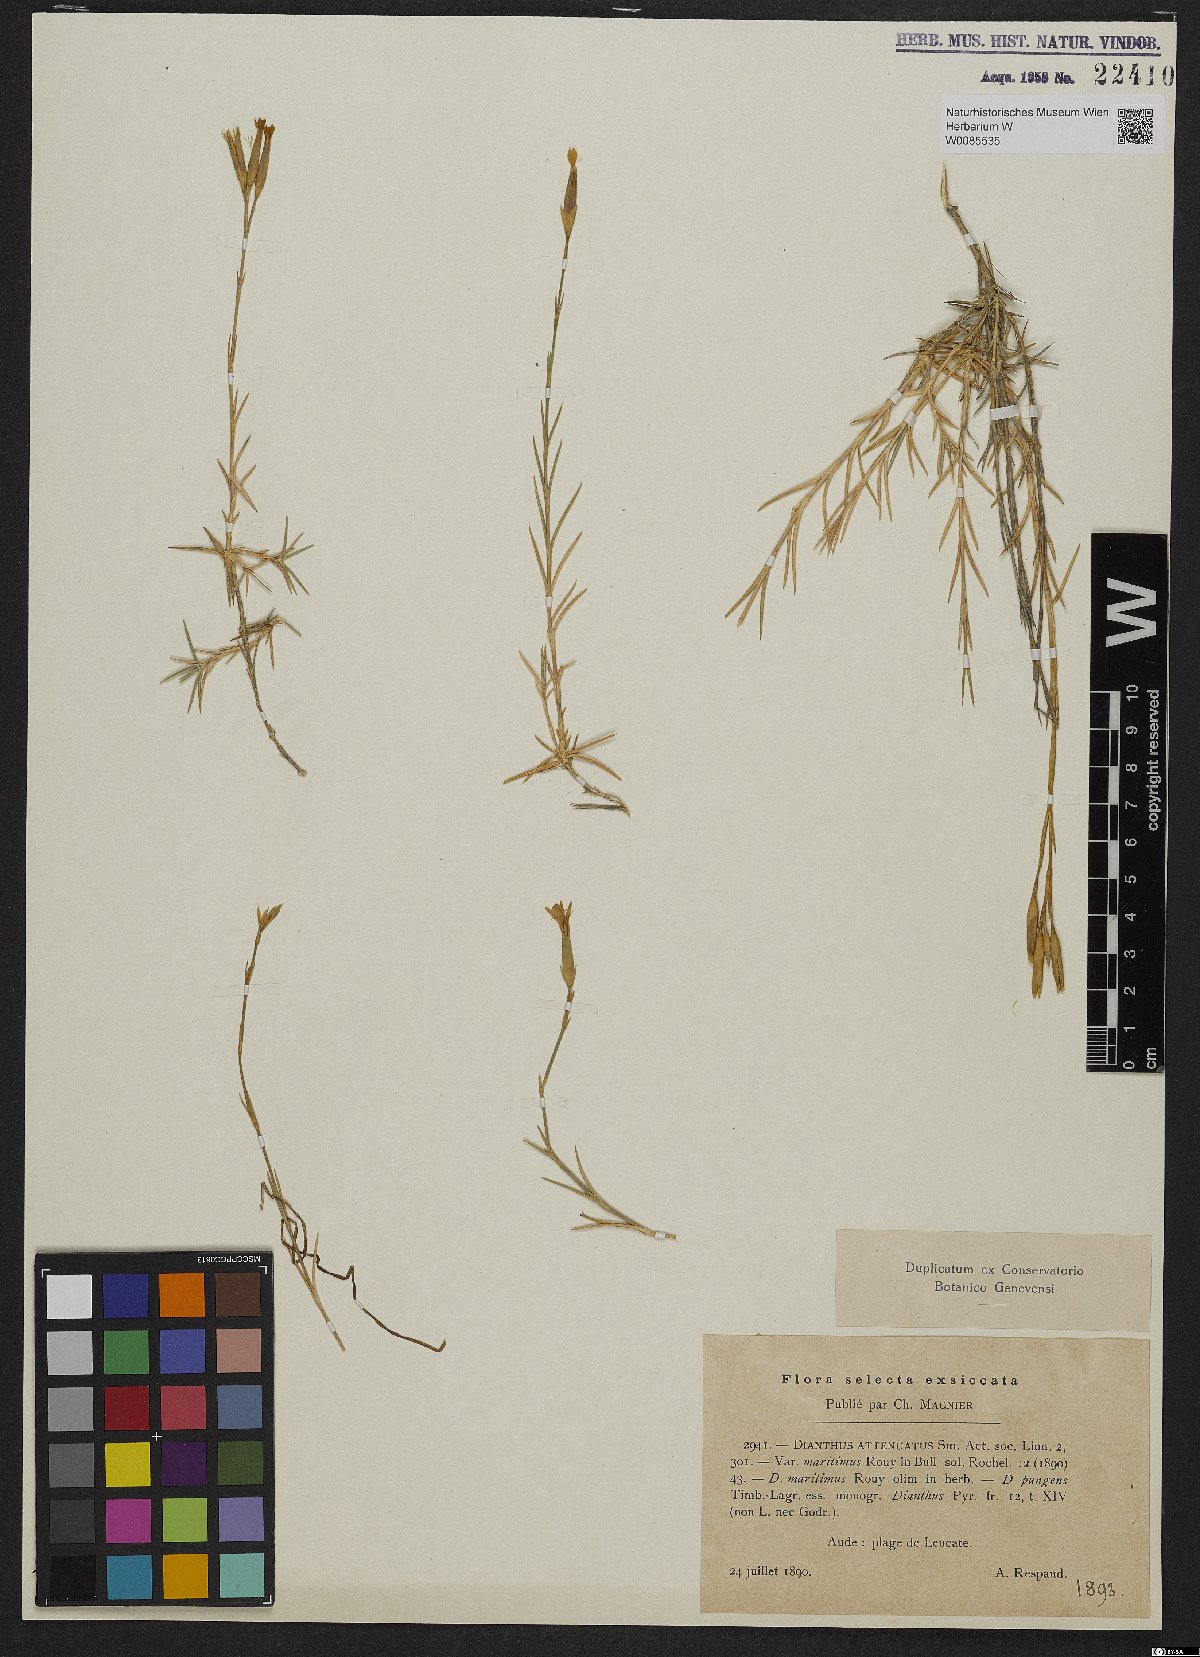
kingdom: Plantae
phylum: Tracheophyta
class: Magnoliopsida
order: Caryophyllales
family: Caryophyllaceae
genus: Dianthus
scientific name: Dianthus pyrenaicus
